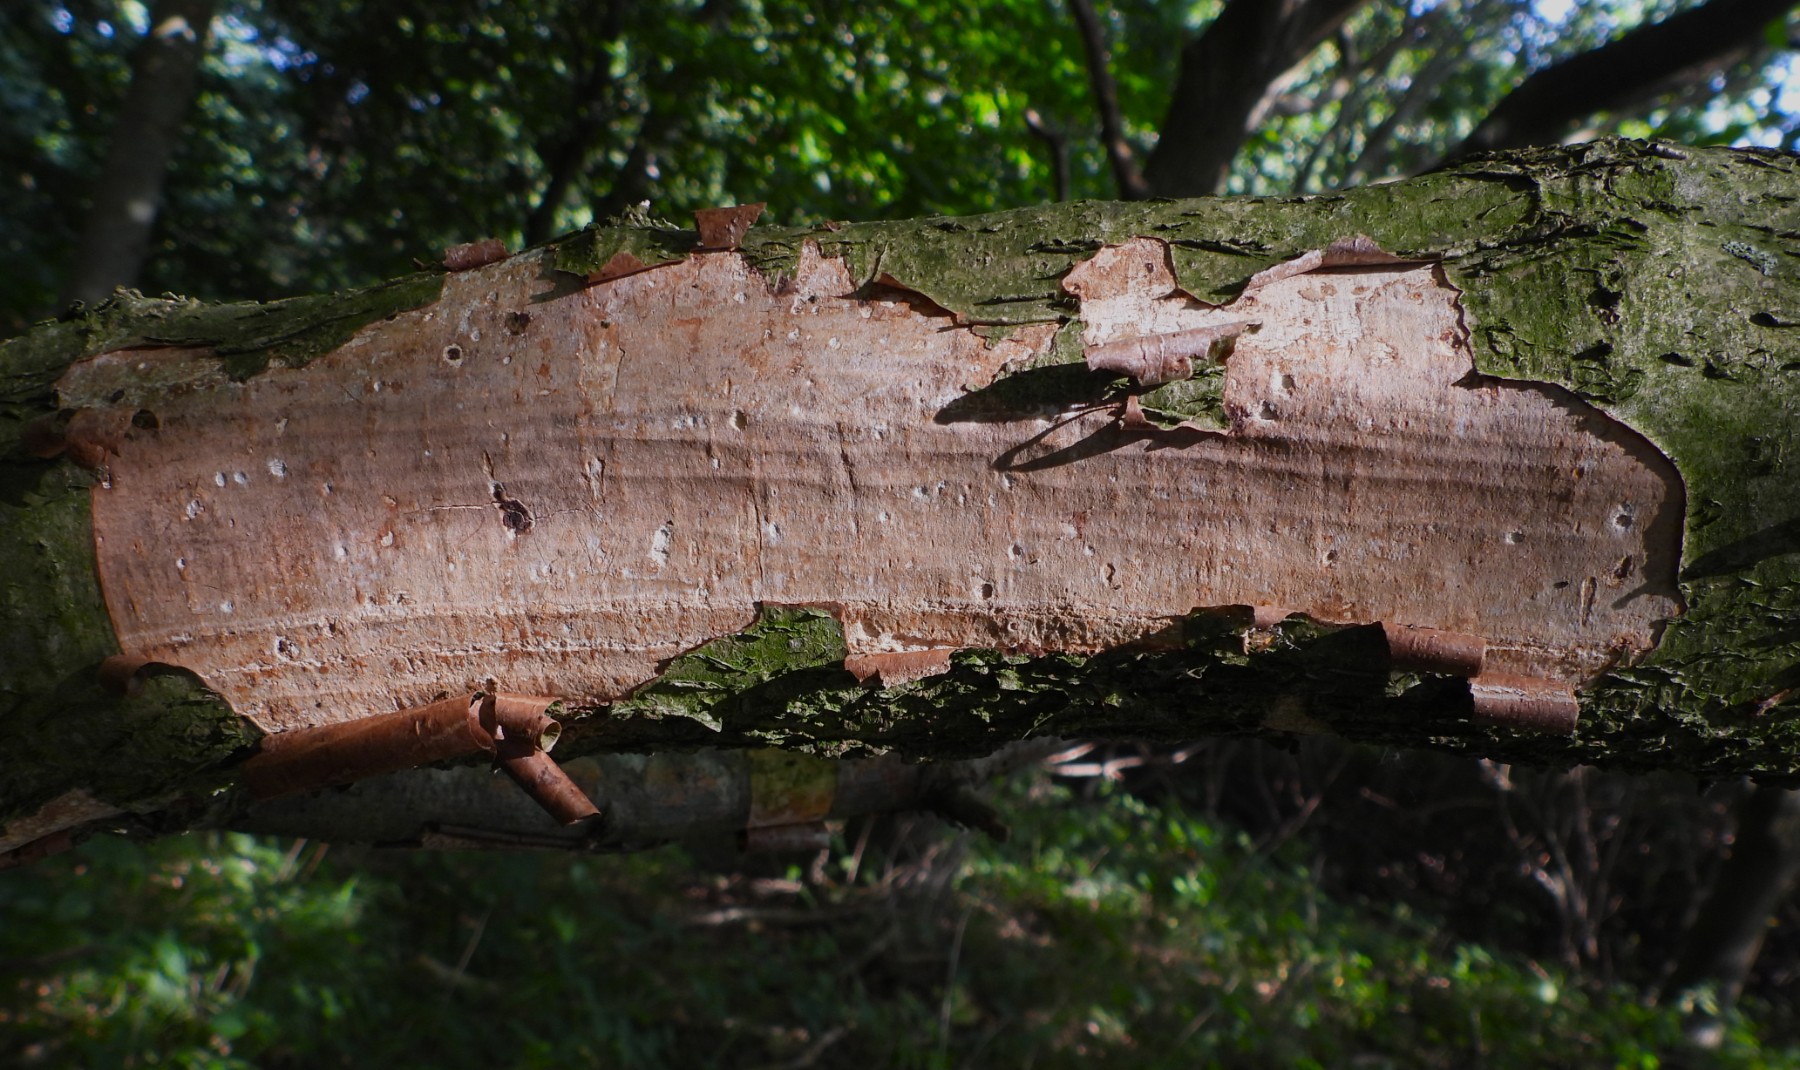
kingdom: Fungi
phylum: Basidiomycota
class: Agaricomycetes
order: Corticiales
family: Vuilleminiaceae
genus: Vuilleminia
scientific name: Vuilleminia coryli
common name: hassel-barksprænger
